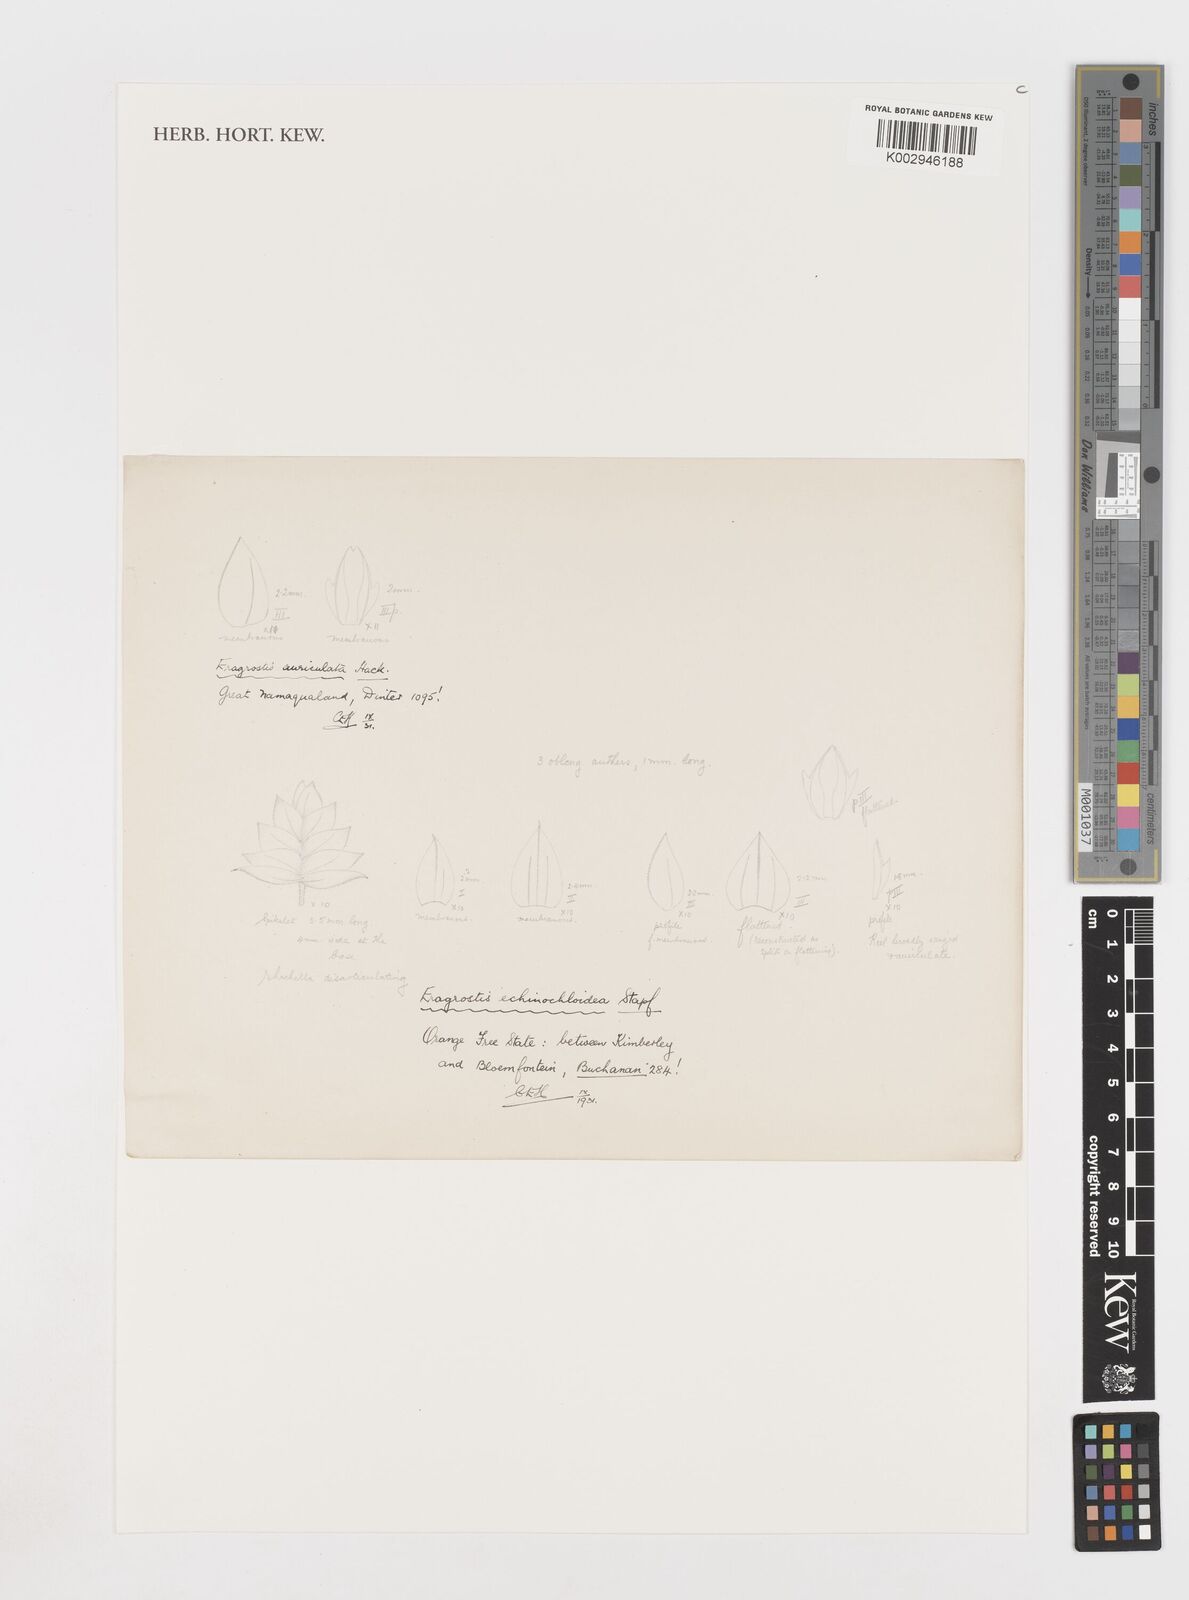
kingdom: Plantae
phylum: Tracheophyta
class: Liliopsida
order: Poales
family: Poaceae
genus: Eragrostis
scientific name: Eragrostis echinochloidea
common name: African lovegrass
